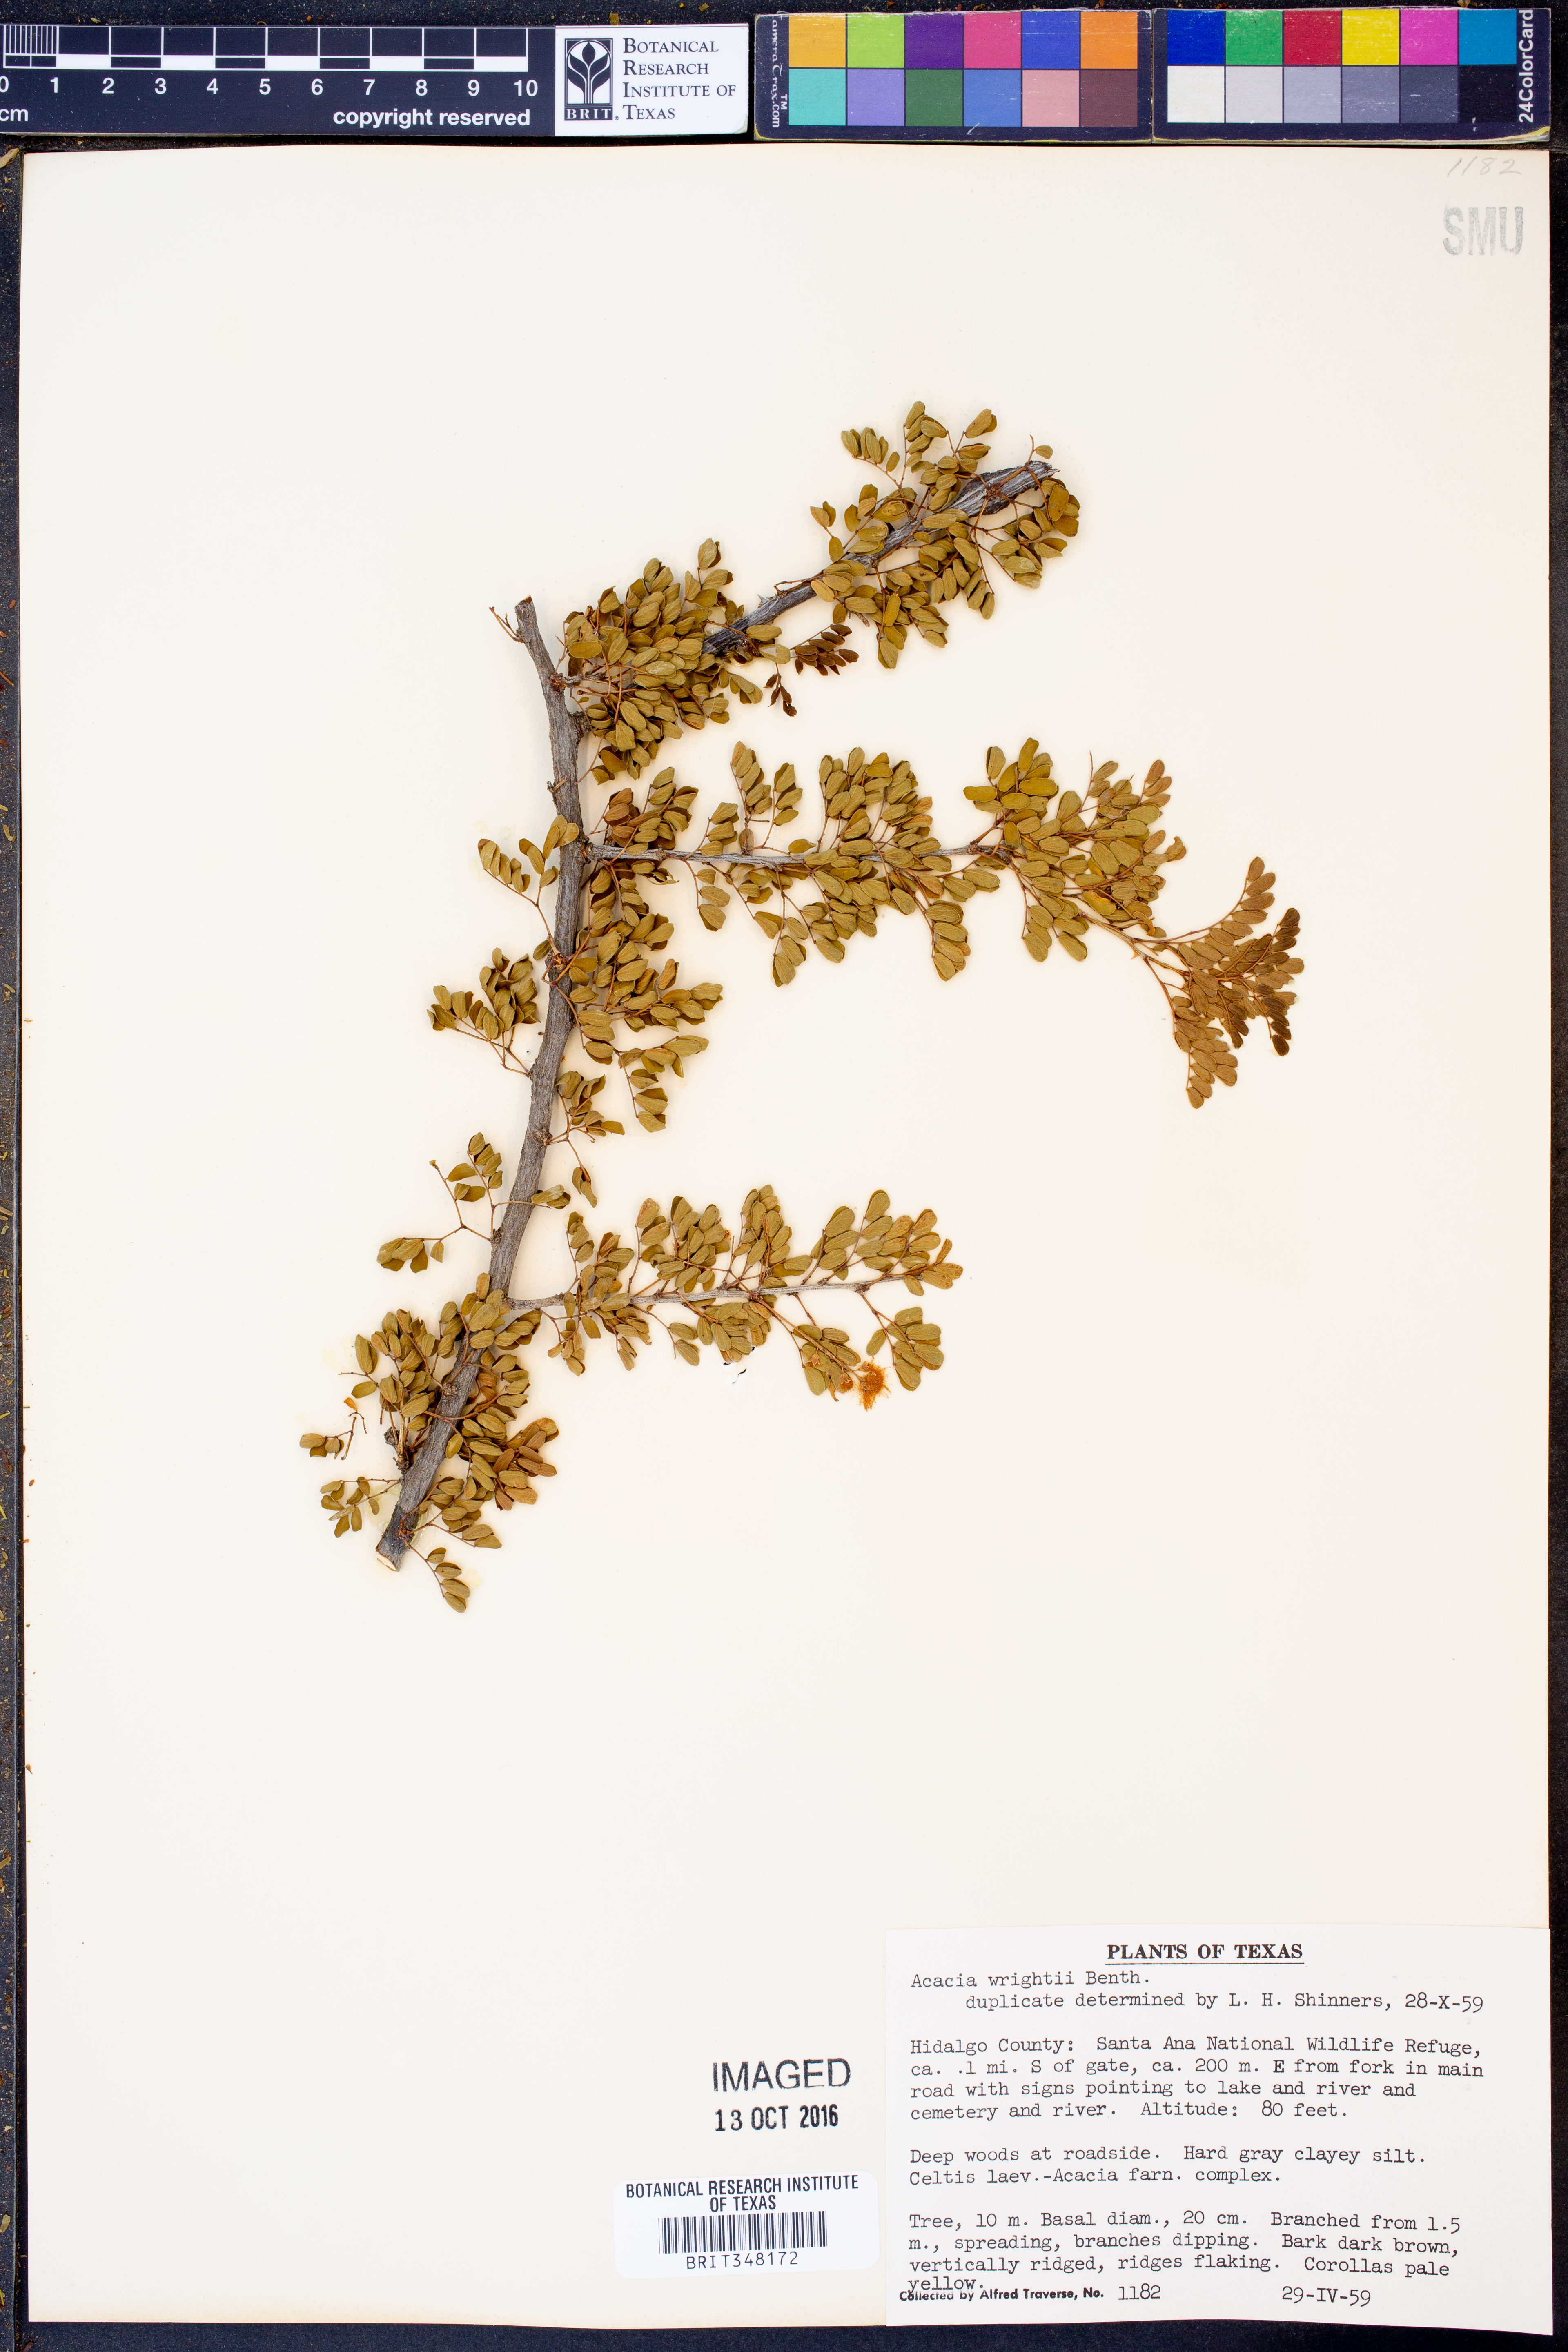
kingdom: Plantae
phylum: Tracheophyta
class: Magnoliopsida
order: Fabales
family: Fabaceae
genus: Senegalia
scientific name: Senegalia wrightii
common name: Texas cat's-claw
